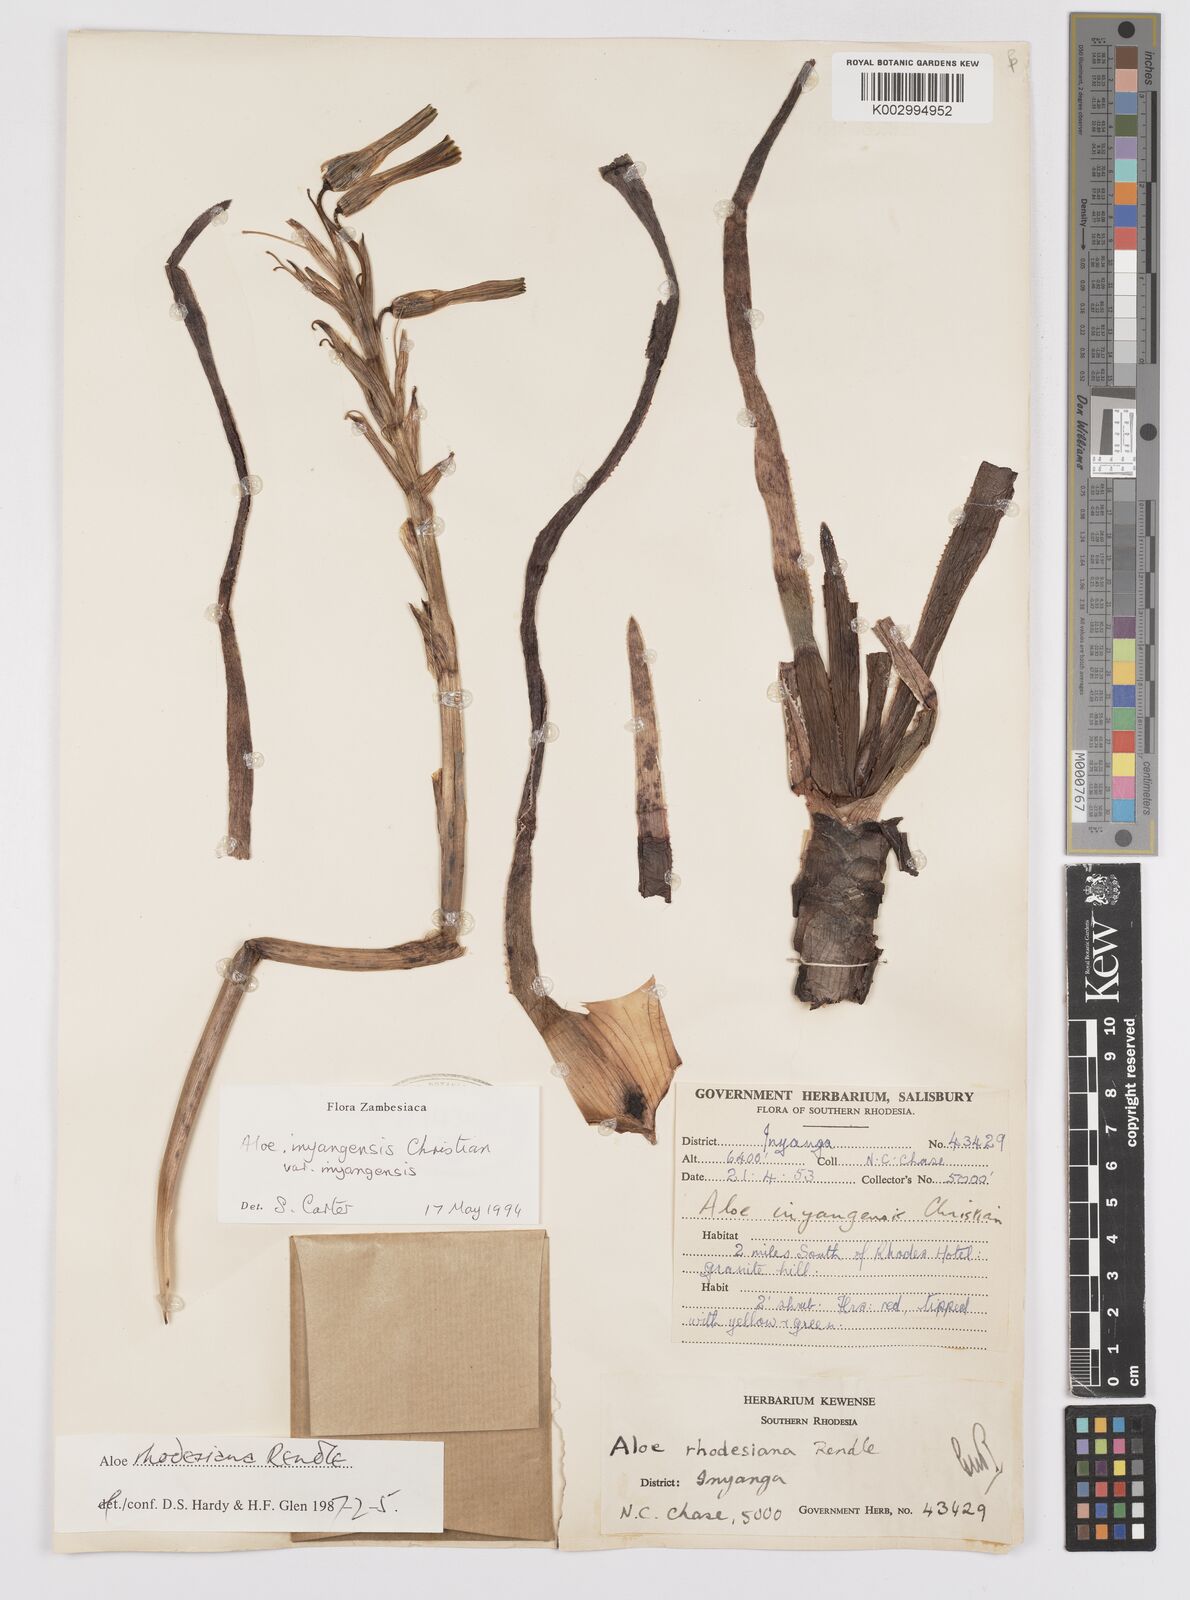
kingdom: Plantae
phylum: Tracheophyta
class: Liliopsida
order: Asparagales
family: Asphodelaceae
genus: Aloe
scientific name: Aloe inyangensis
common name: Inyanga aloe
